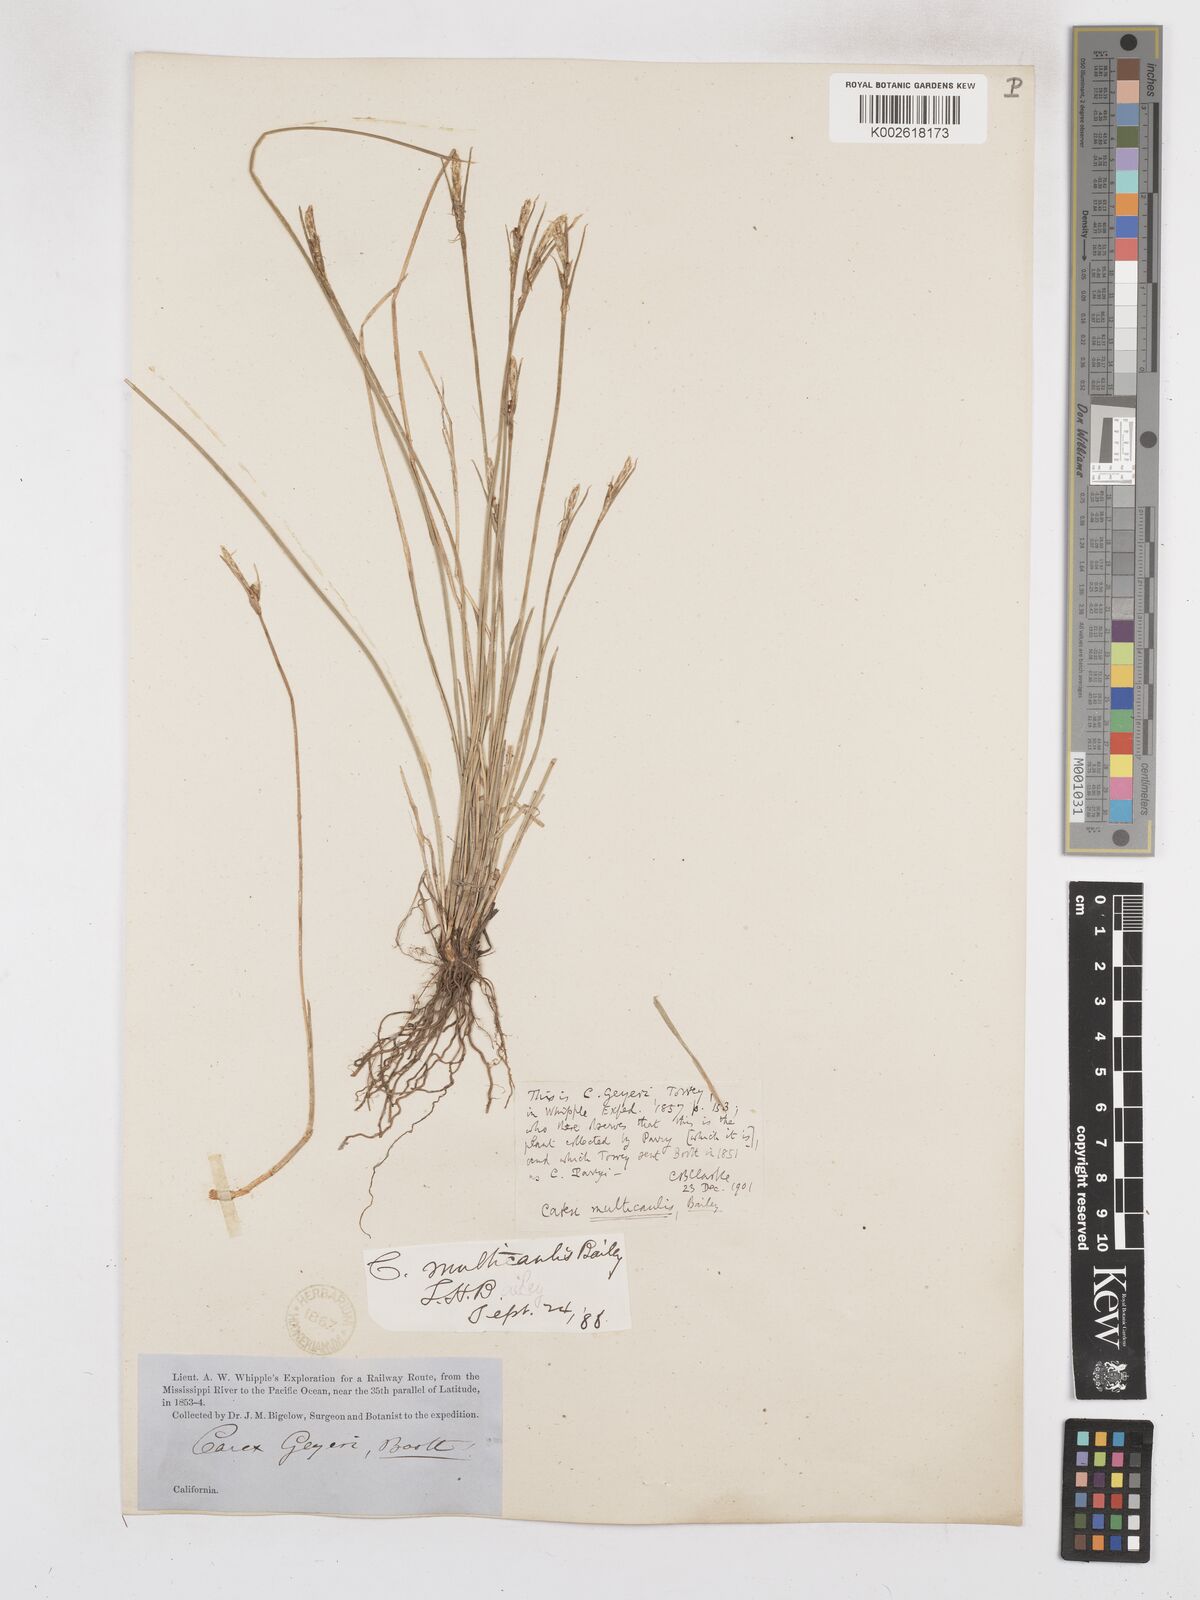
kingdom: Plantae
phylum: Tracheophyta
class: Liliopsida
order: Poales
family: Cyperaceae
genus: Carex
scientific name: Carex multicaulis
